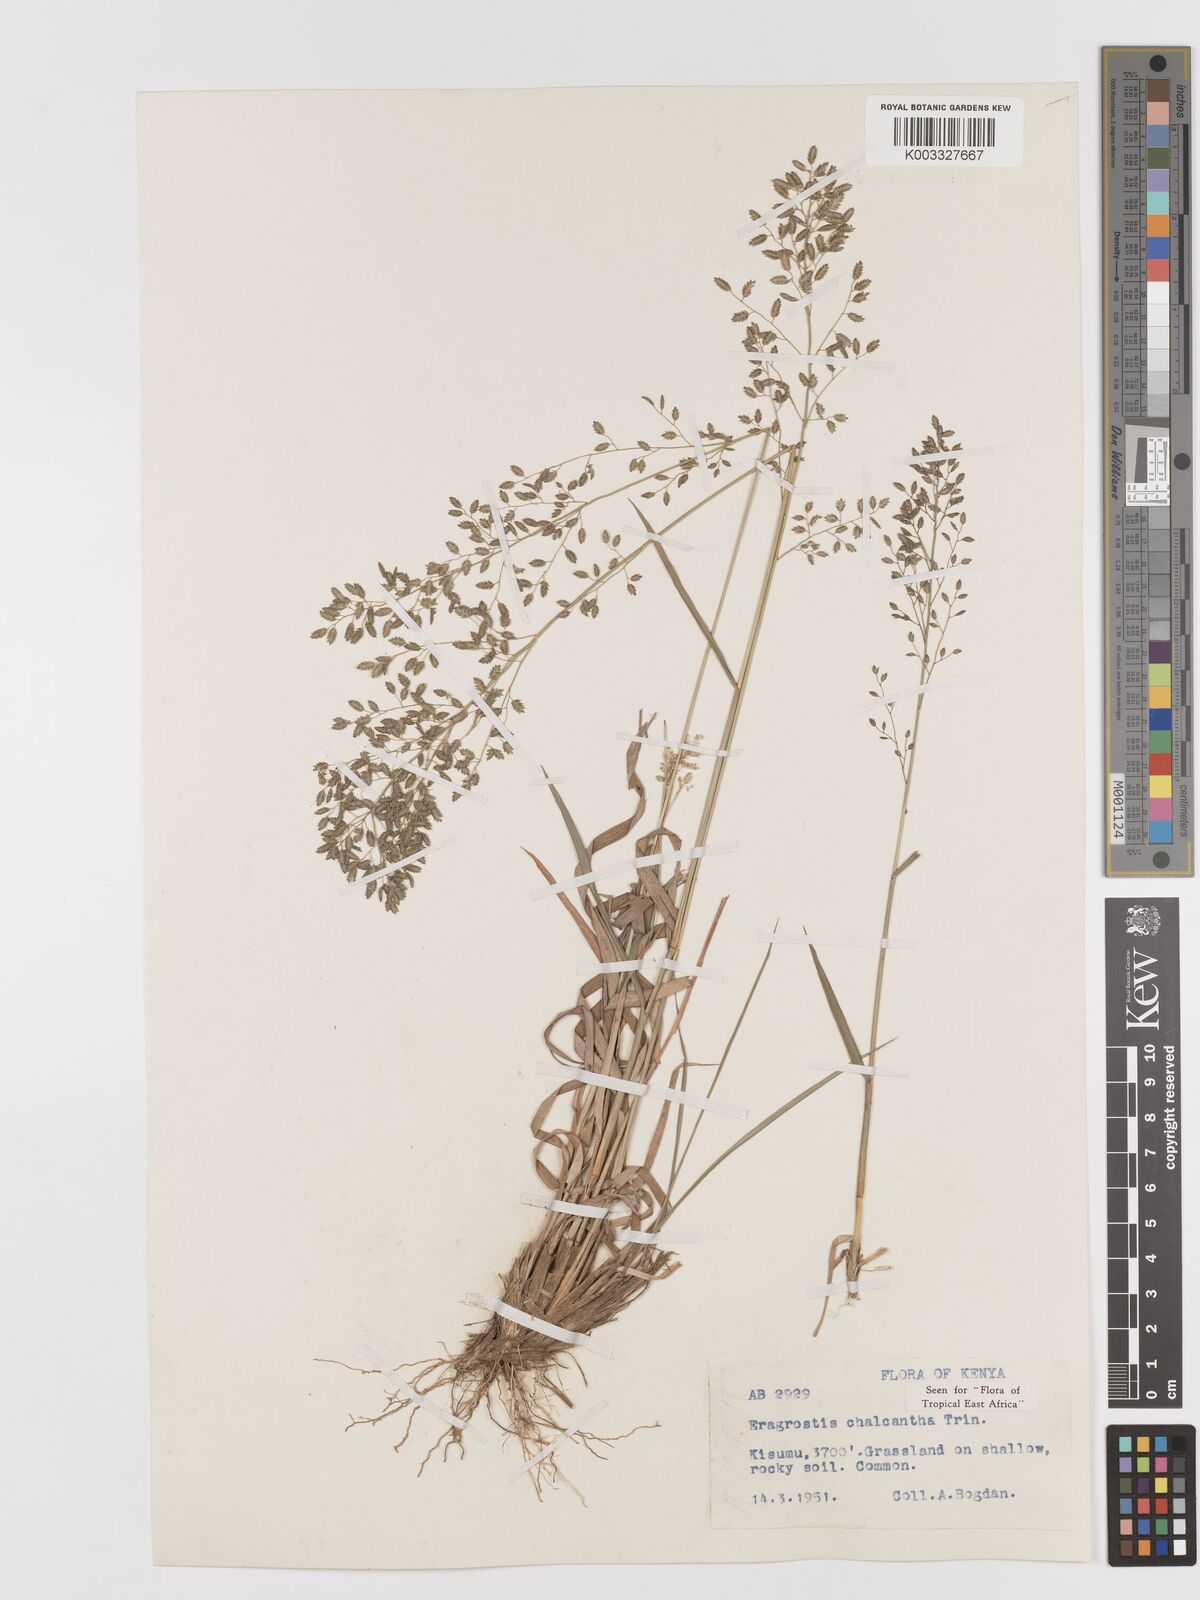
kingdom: Plantae
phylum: Tracheophyta
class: Liliopsida
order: Poales
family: Poaceae
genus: Eragrostis
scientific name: Eragrostis racemosa
